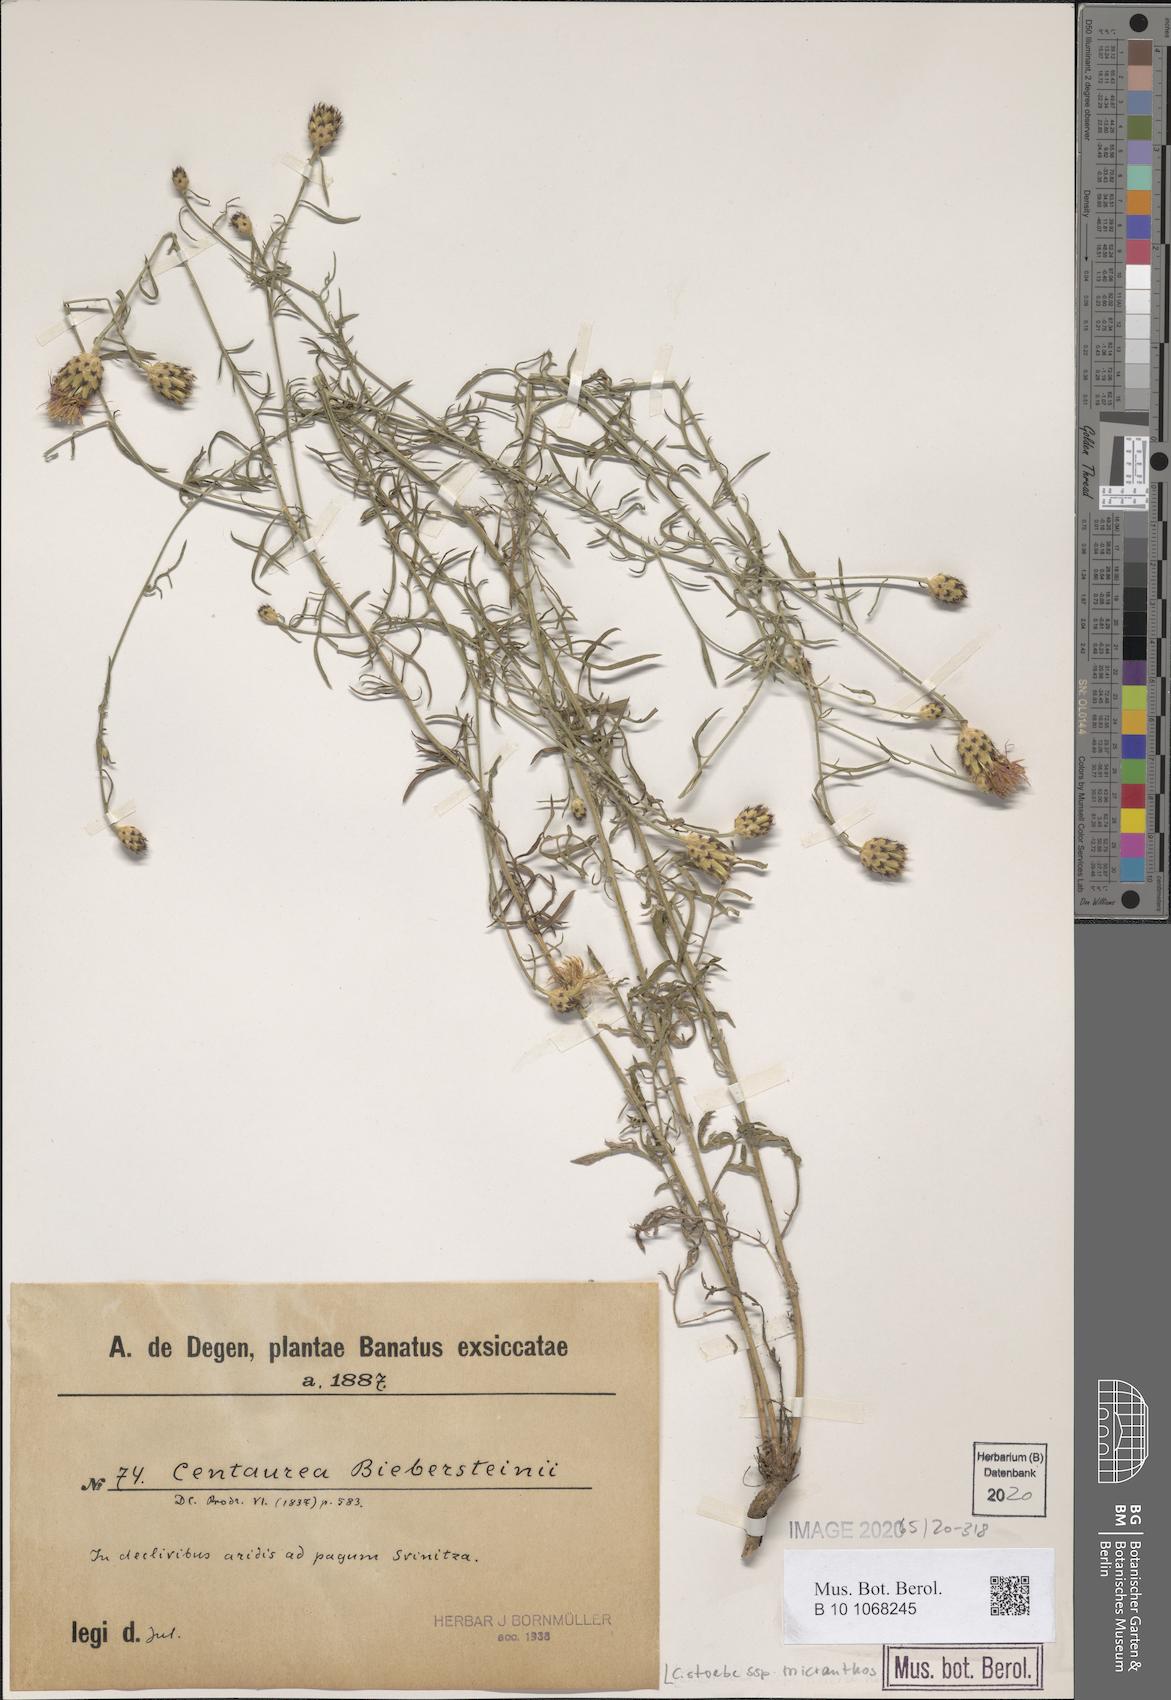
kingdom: Plantae
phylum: Tracheophyta
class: Magnoliopsida
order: Asterales
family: Asteraceae
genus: Centaurea
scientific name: Centaurea australis
